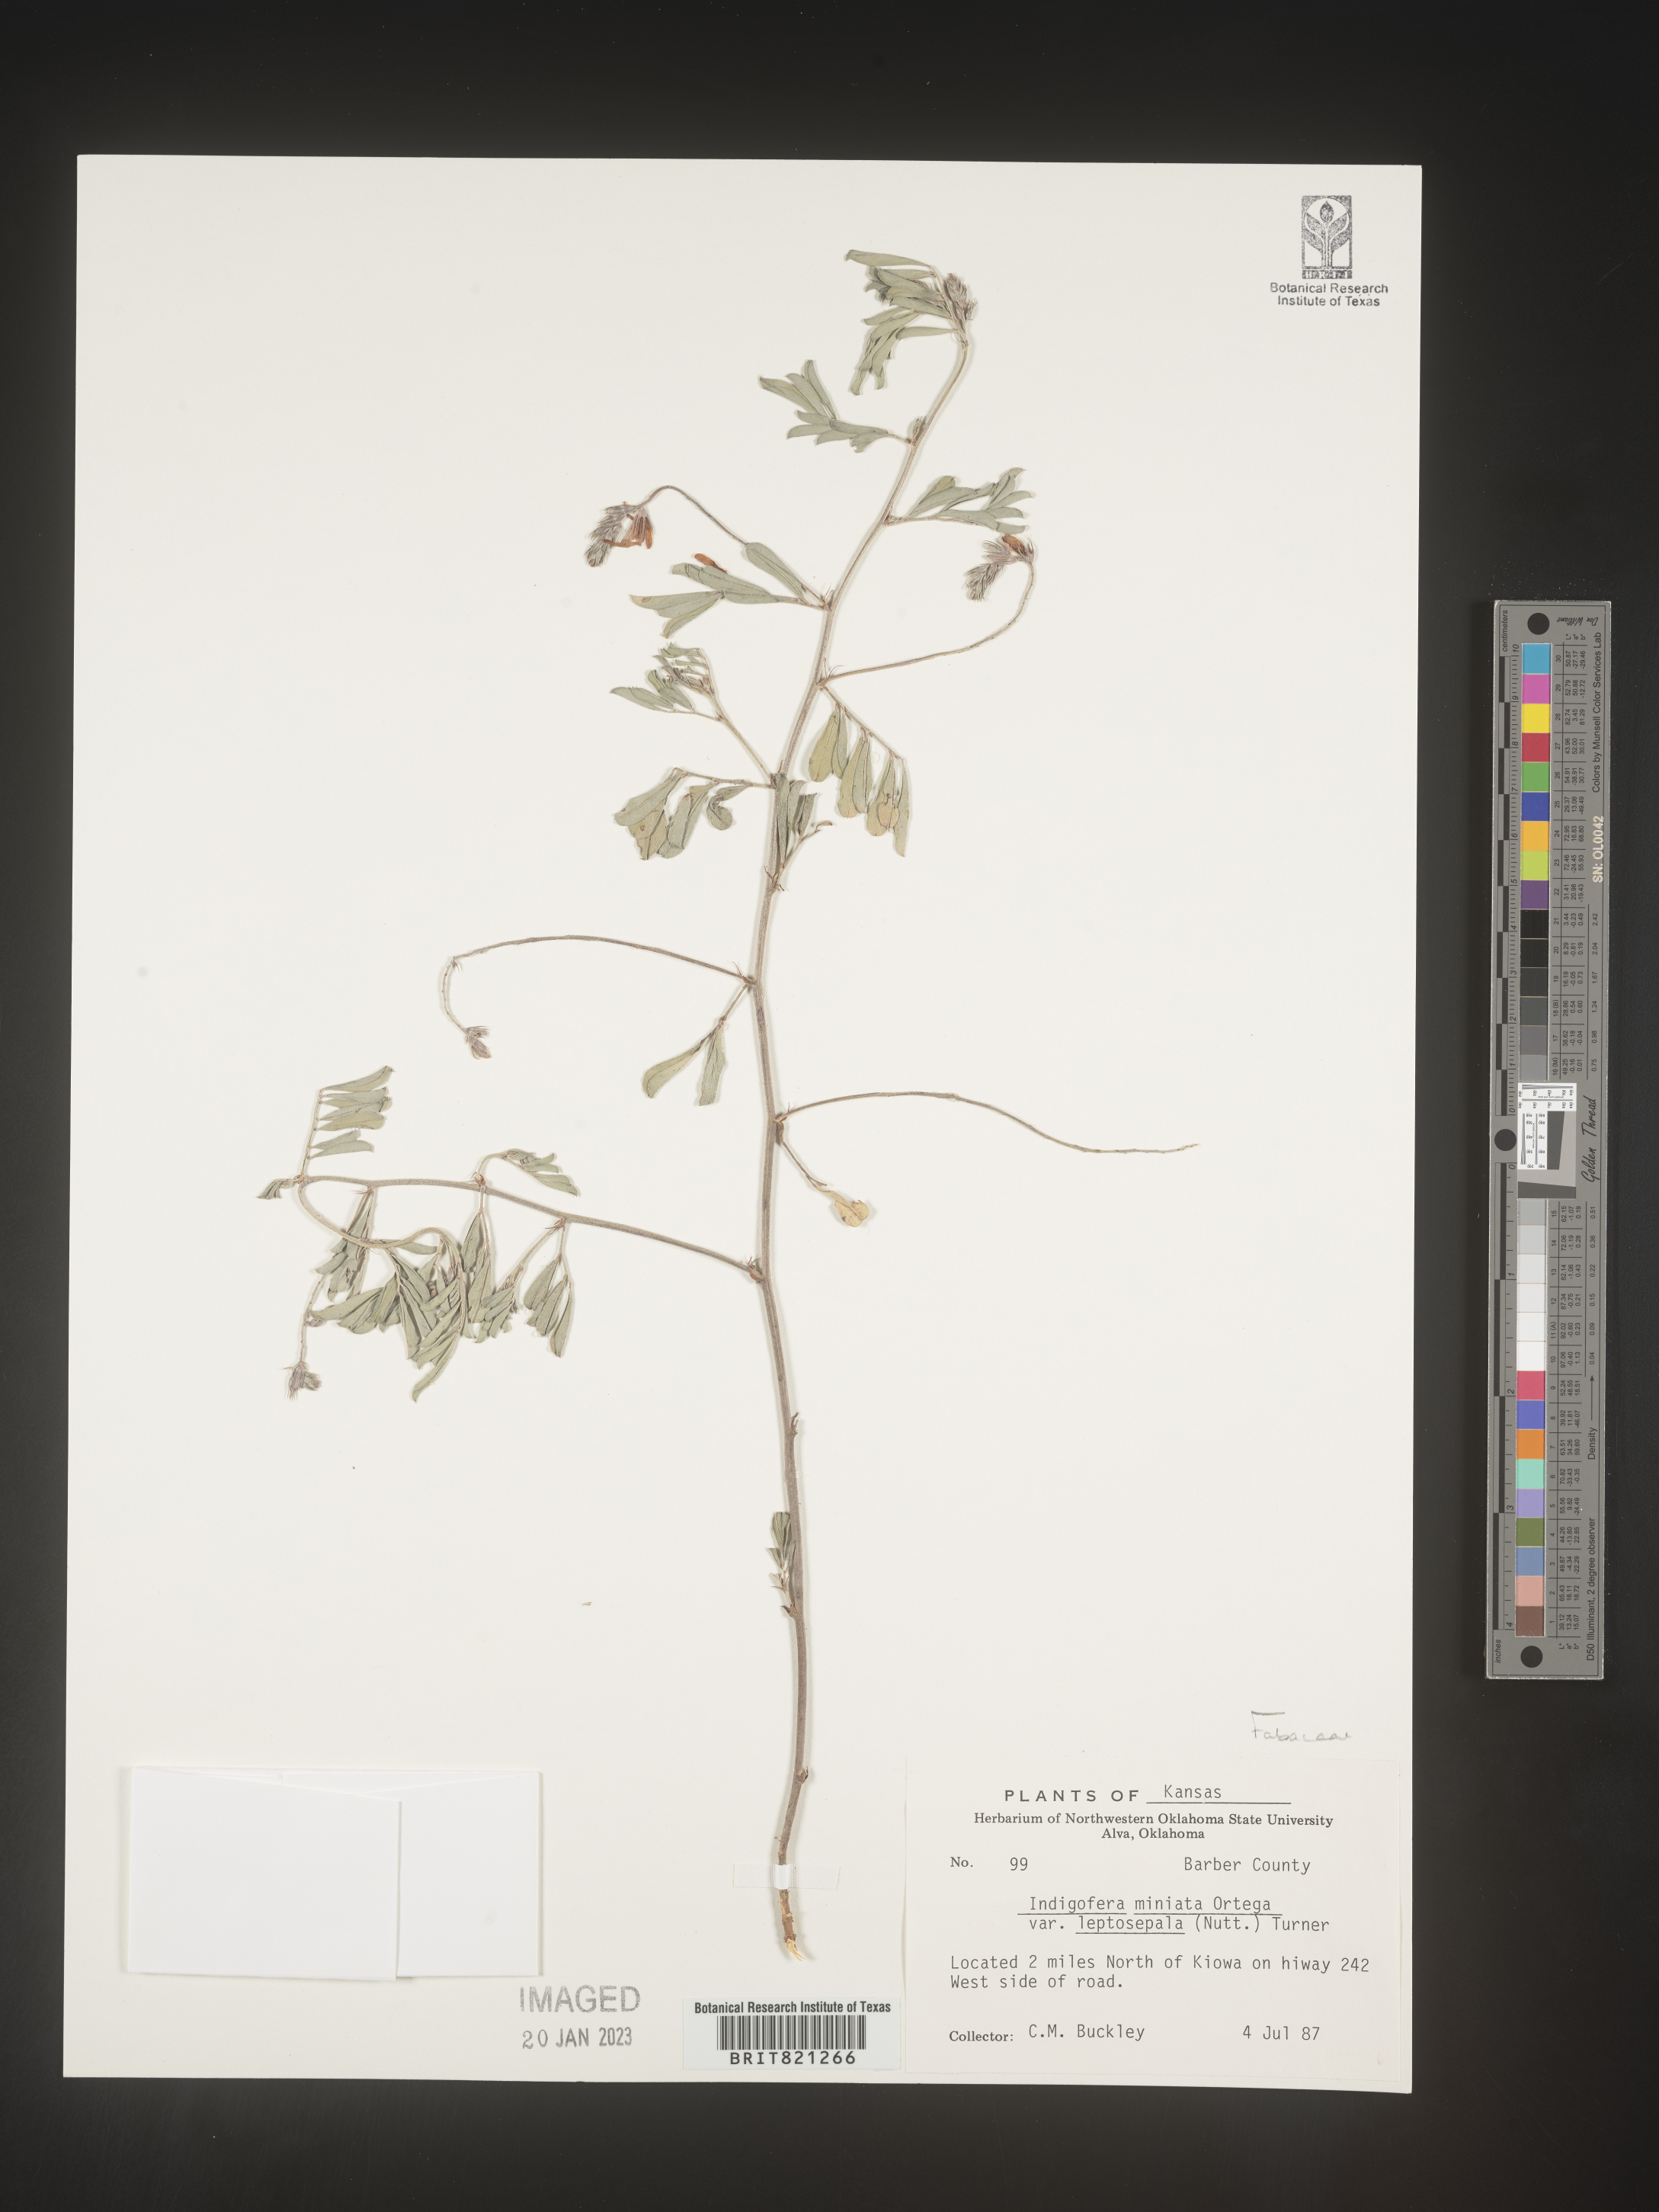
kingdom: Plantae
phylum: Tracheophyta
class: Magnoliopsida
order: Fabales
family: Fabaceae
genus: Indigofera
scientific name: Indigofera miniata
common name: Coast indigo
